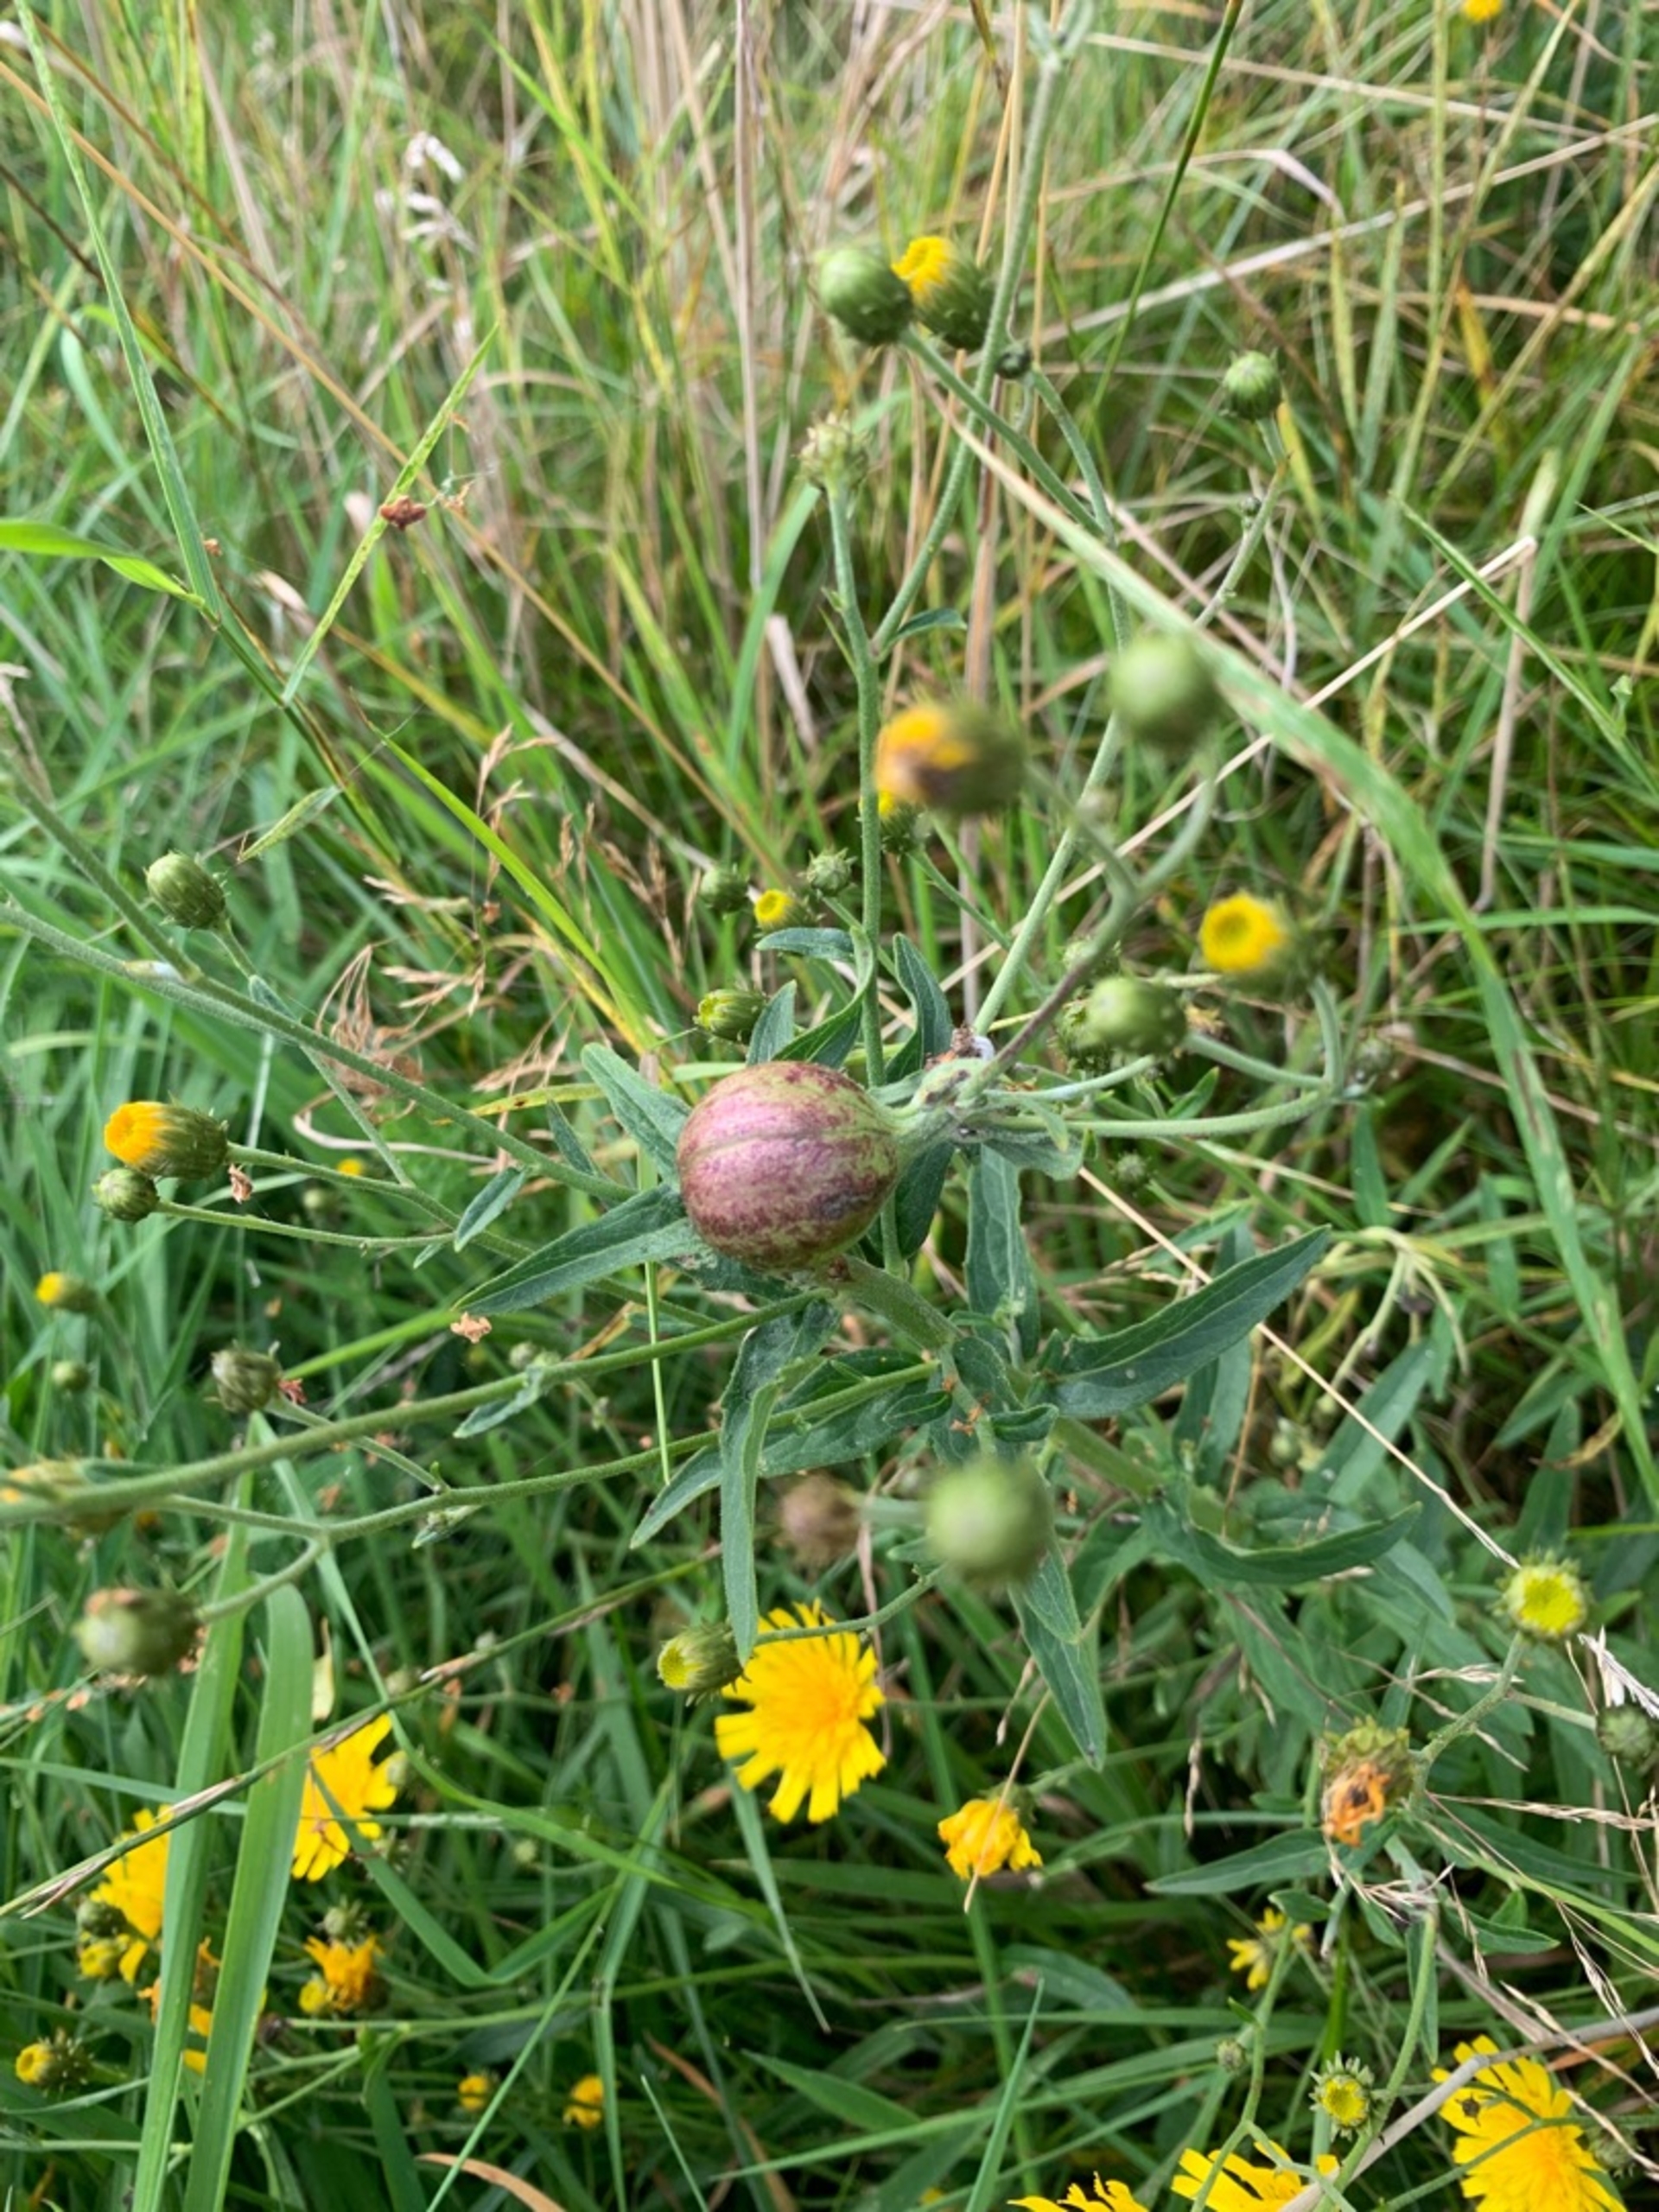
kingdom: Animalia
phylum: Arthropoda
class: Insecta
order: Hymenoptera
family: Cynipidae
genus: Aulacidea
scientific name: Aulacidea hieracii
